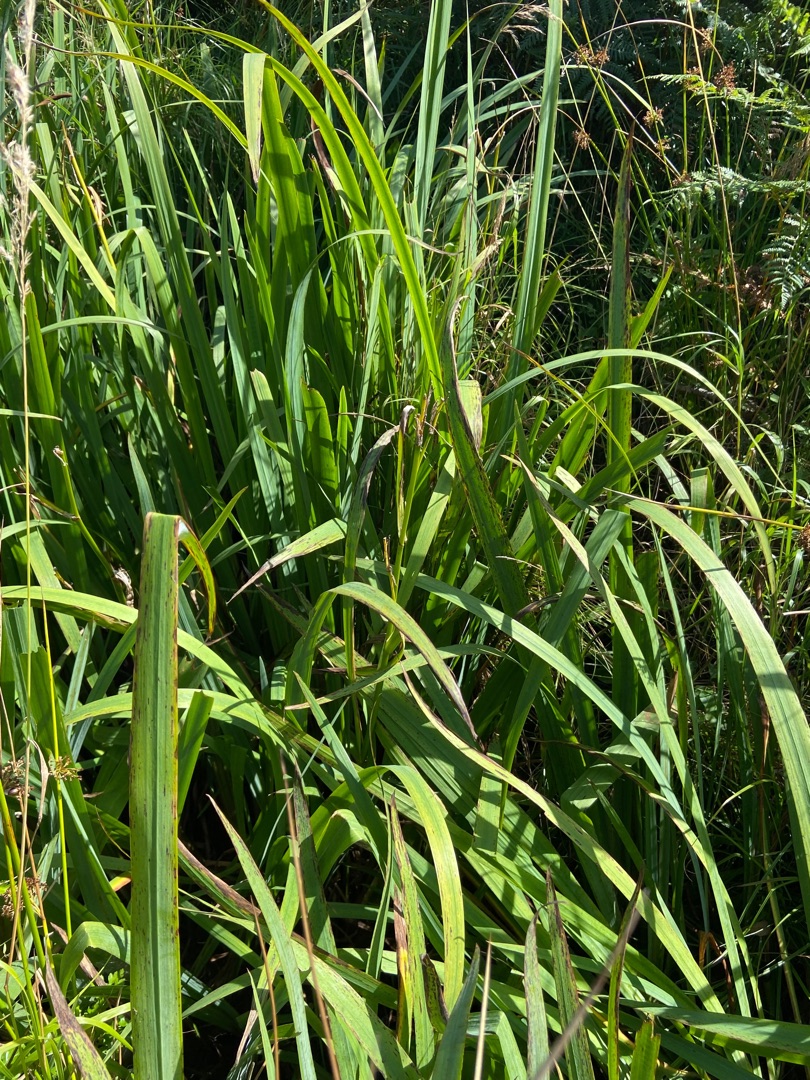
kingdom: Plantae
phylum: Tracheophyta
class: Liliopsida
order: Asparagales
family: Iridaceae
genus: Iris
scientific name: Iris pseudacorus
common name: Gul iris
